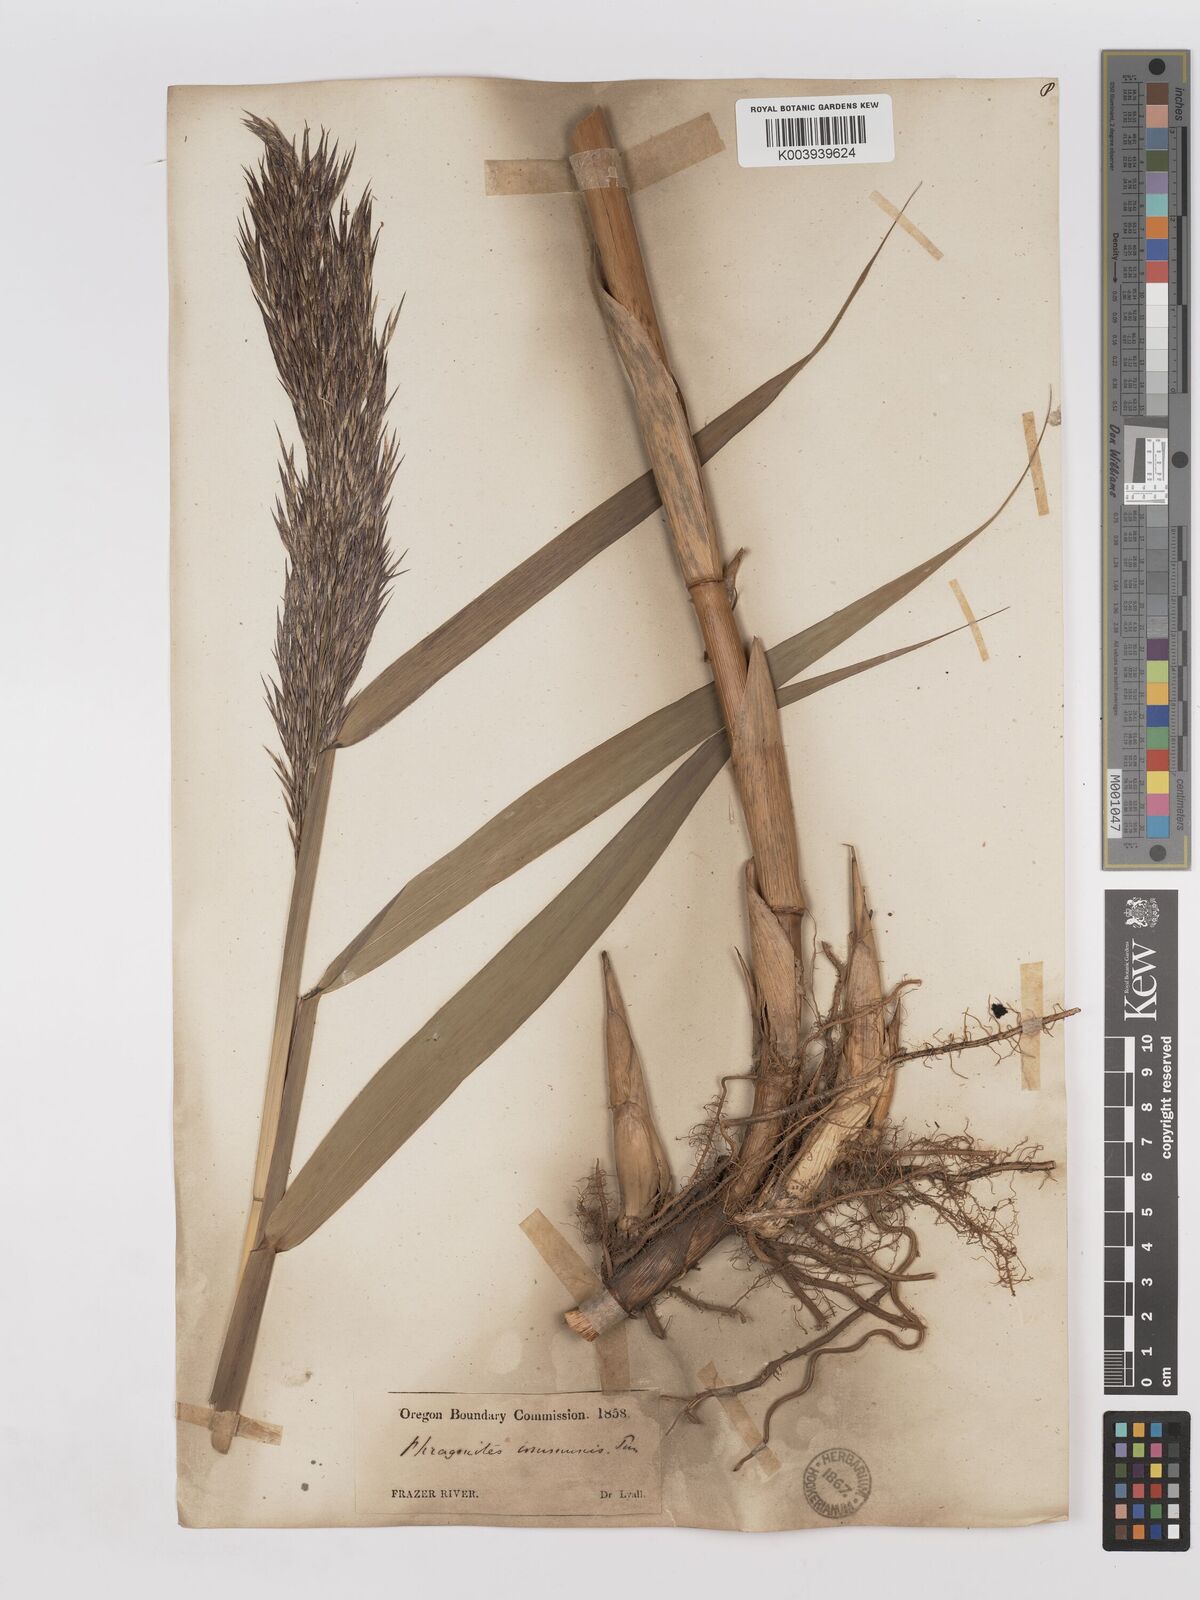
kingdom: Plantae
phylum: Tracheophyta
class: Liliopsida
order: Poales
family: Poaceae
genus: Phragmites
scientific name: Phragmites australis
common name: Common reed
